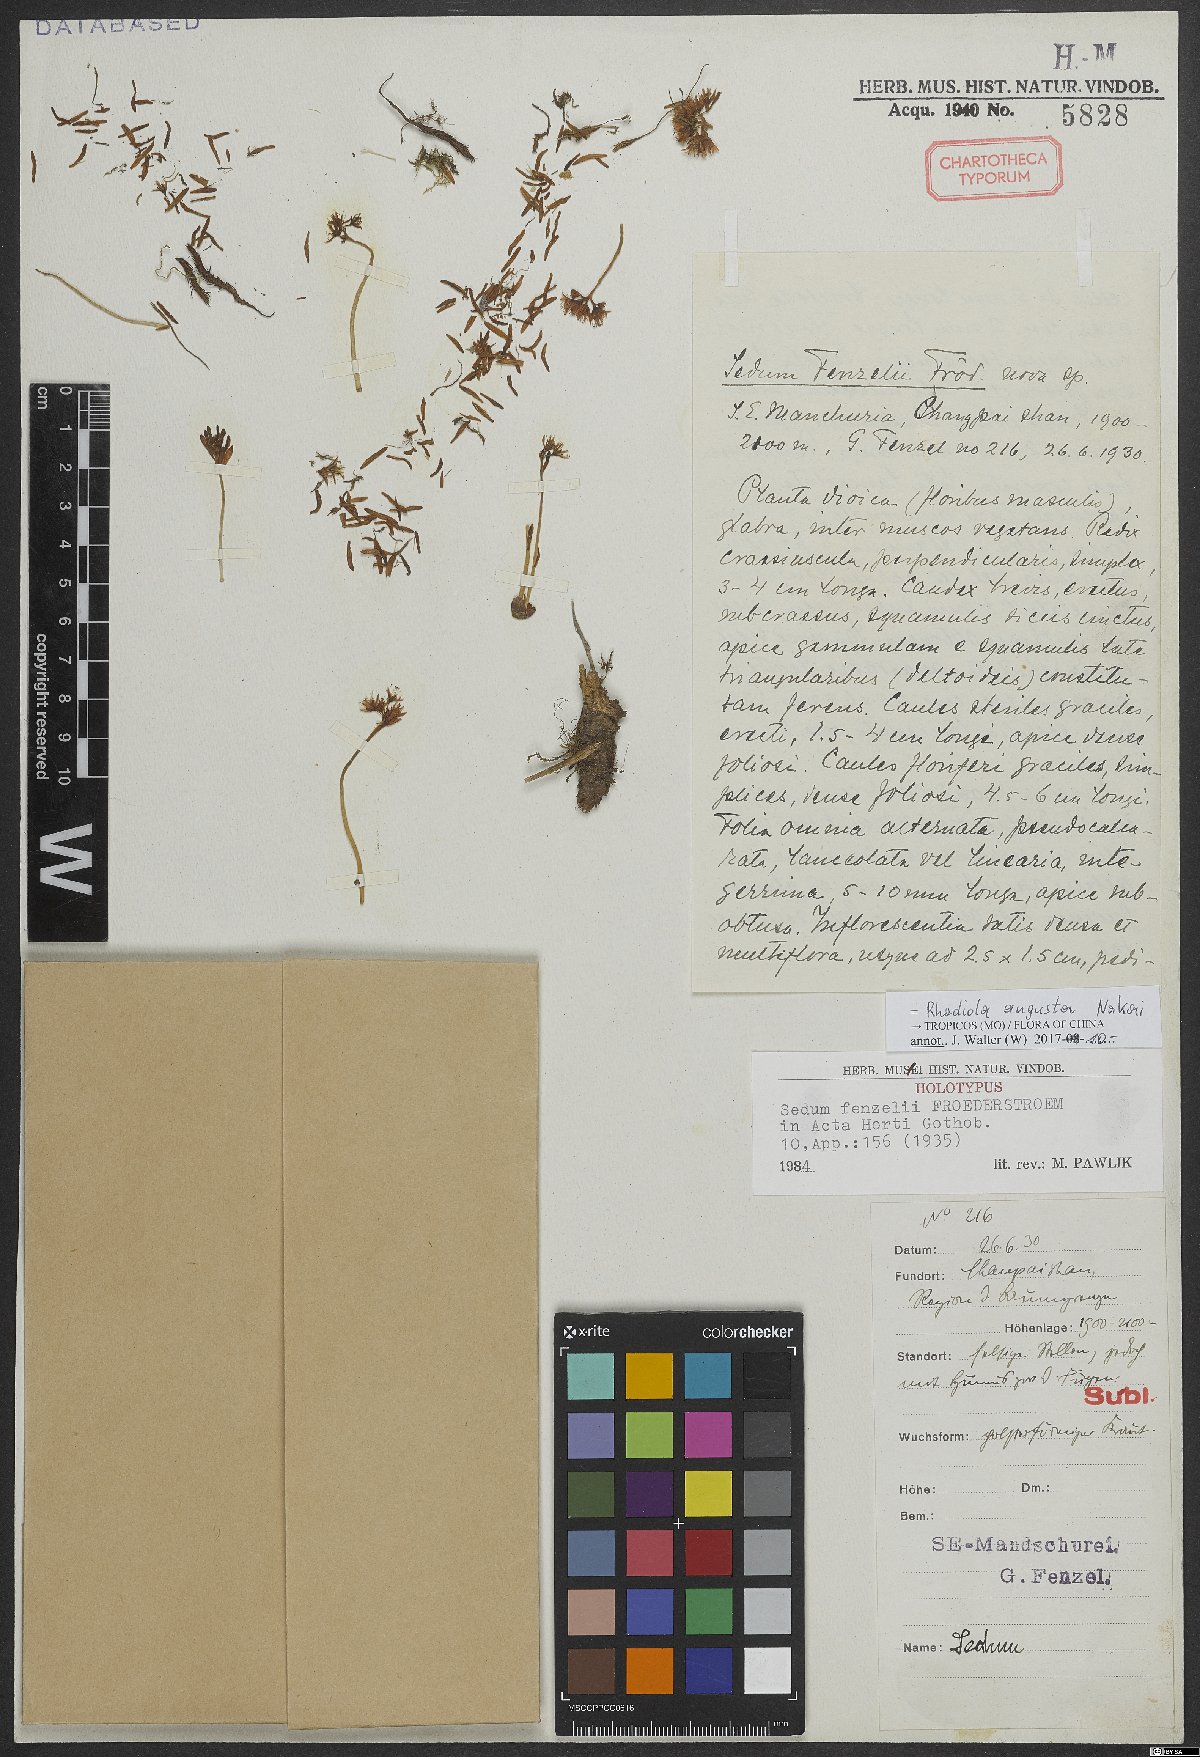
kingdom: Plantae
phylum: Tracheophyta
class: Magnoliopsida
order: Saxifragales
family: Crassulaceae
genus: Rhodiola
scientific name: Rhodiola angusta
